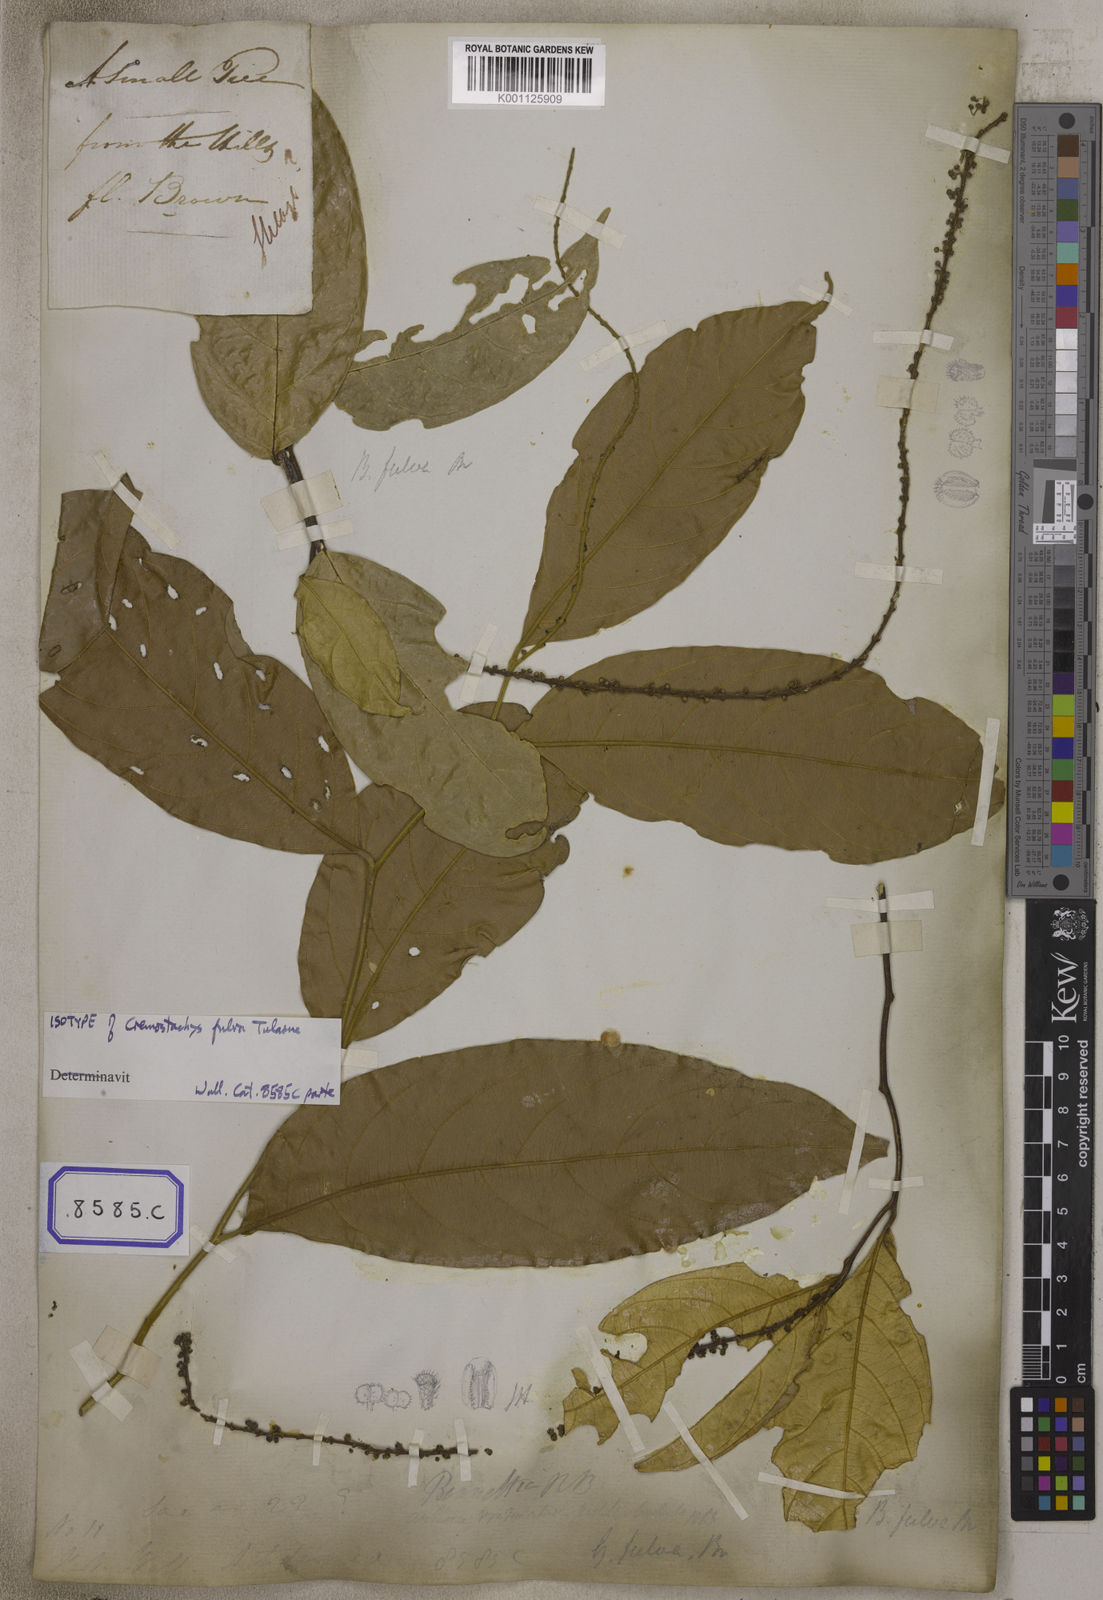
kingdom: Plantae
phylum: Tracheophyta
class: Magnoliopsida
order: Malpighiales
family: Pandaceae
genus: Galearia
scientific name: Galearia
